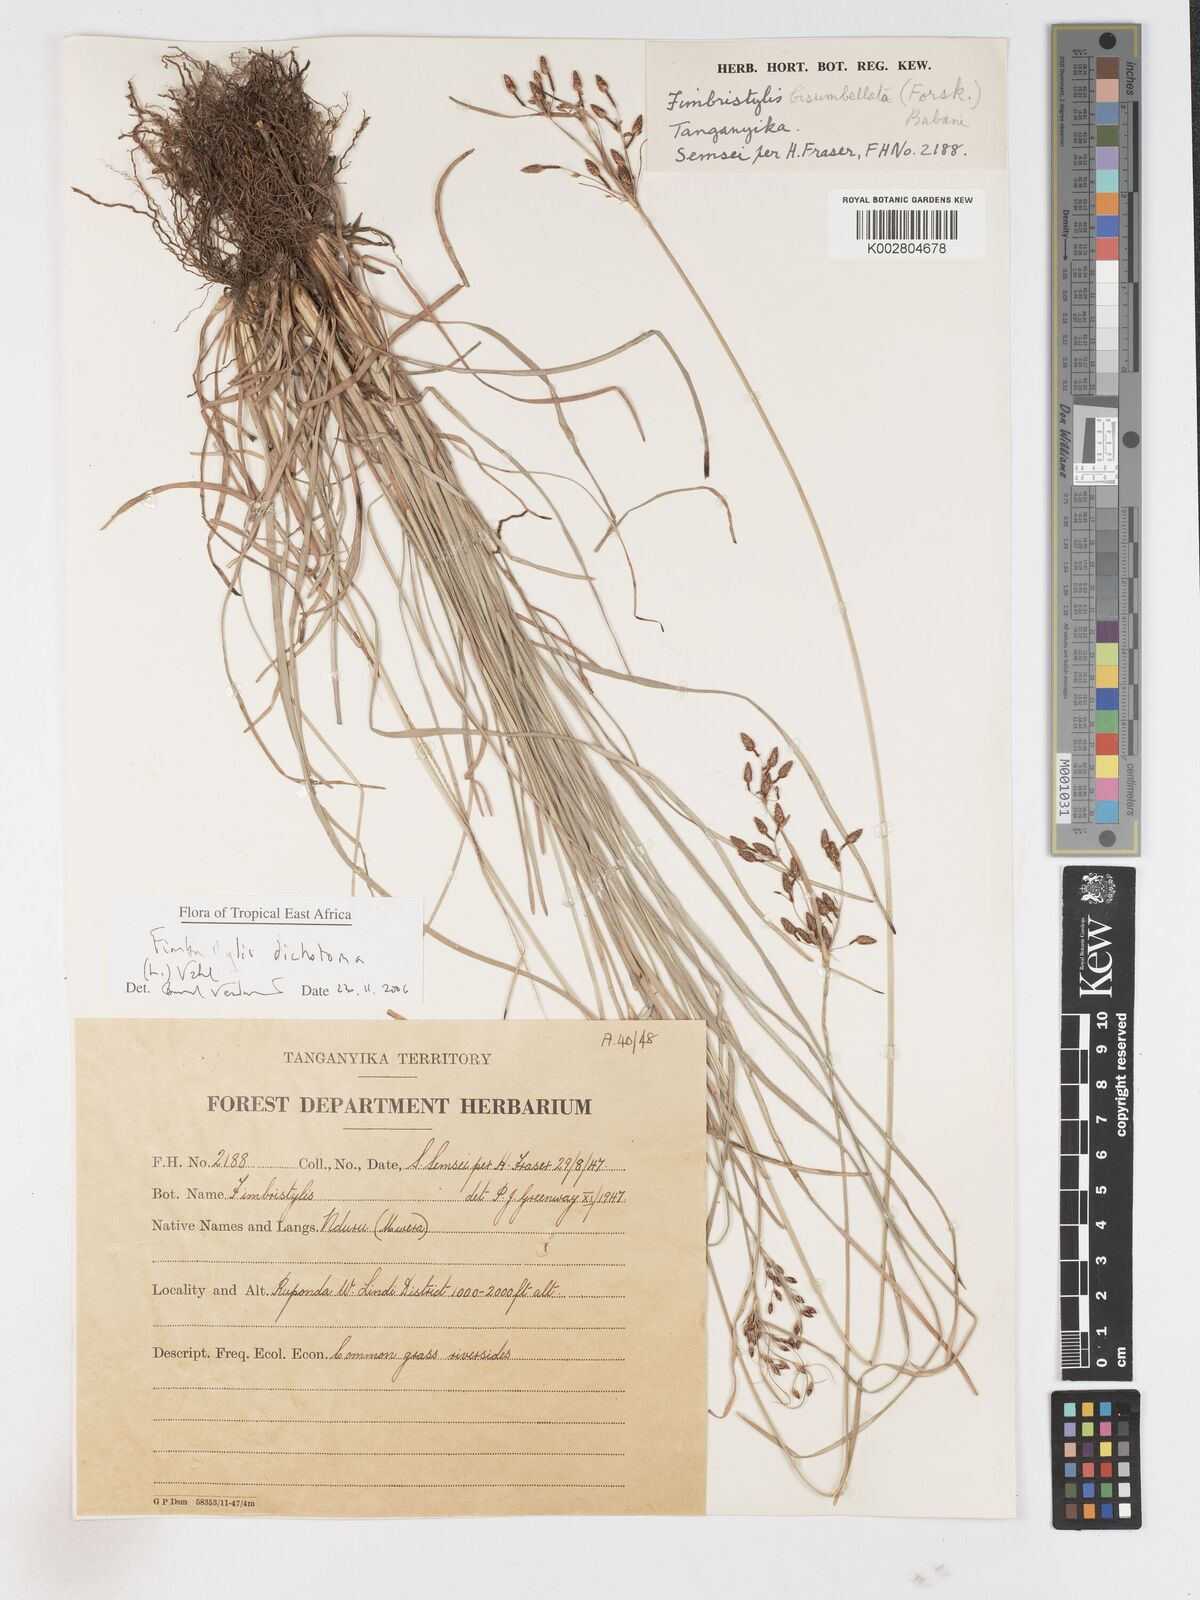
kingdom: Plantae
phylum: Tracheophyta
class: Liliopsida
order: Poales
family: Cyperaceae
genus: Fimbristylis
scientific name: Fimbristylis dichotoma
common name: Forked fimbry
